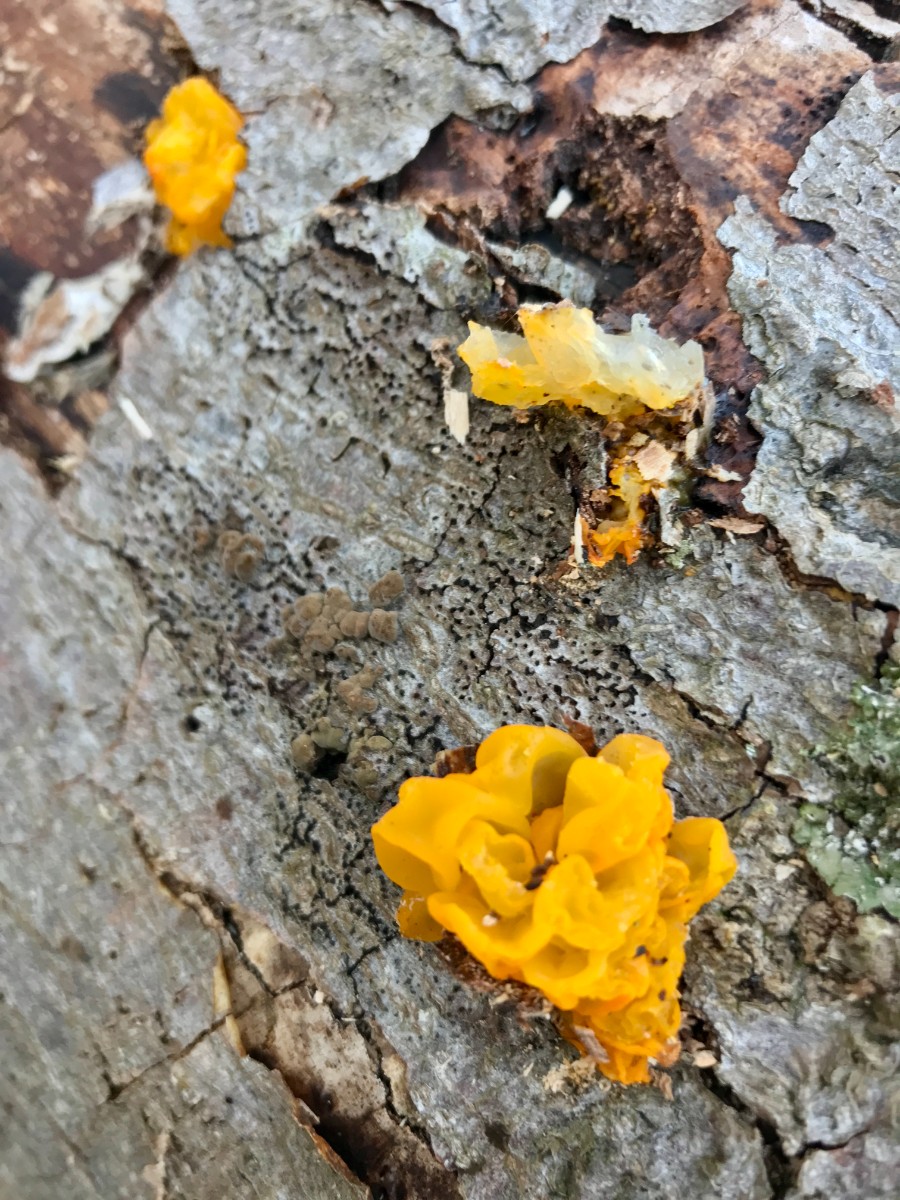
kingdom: Fungi
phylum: Basidiomycota
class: Tremellomycetes
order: Tremellales
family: Tremellaceae
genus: Tremella
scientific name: Tremella mesenterica
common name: gul bævresvamp
